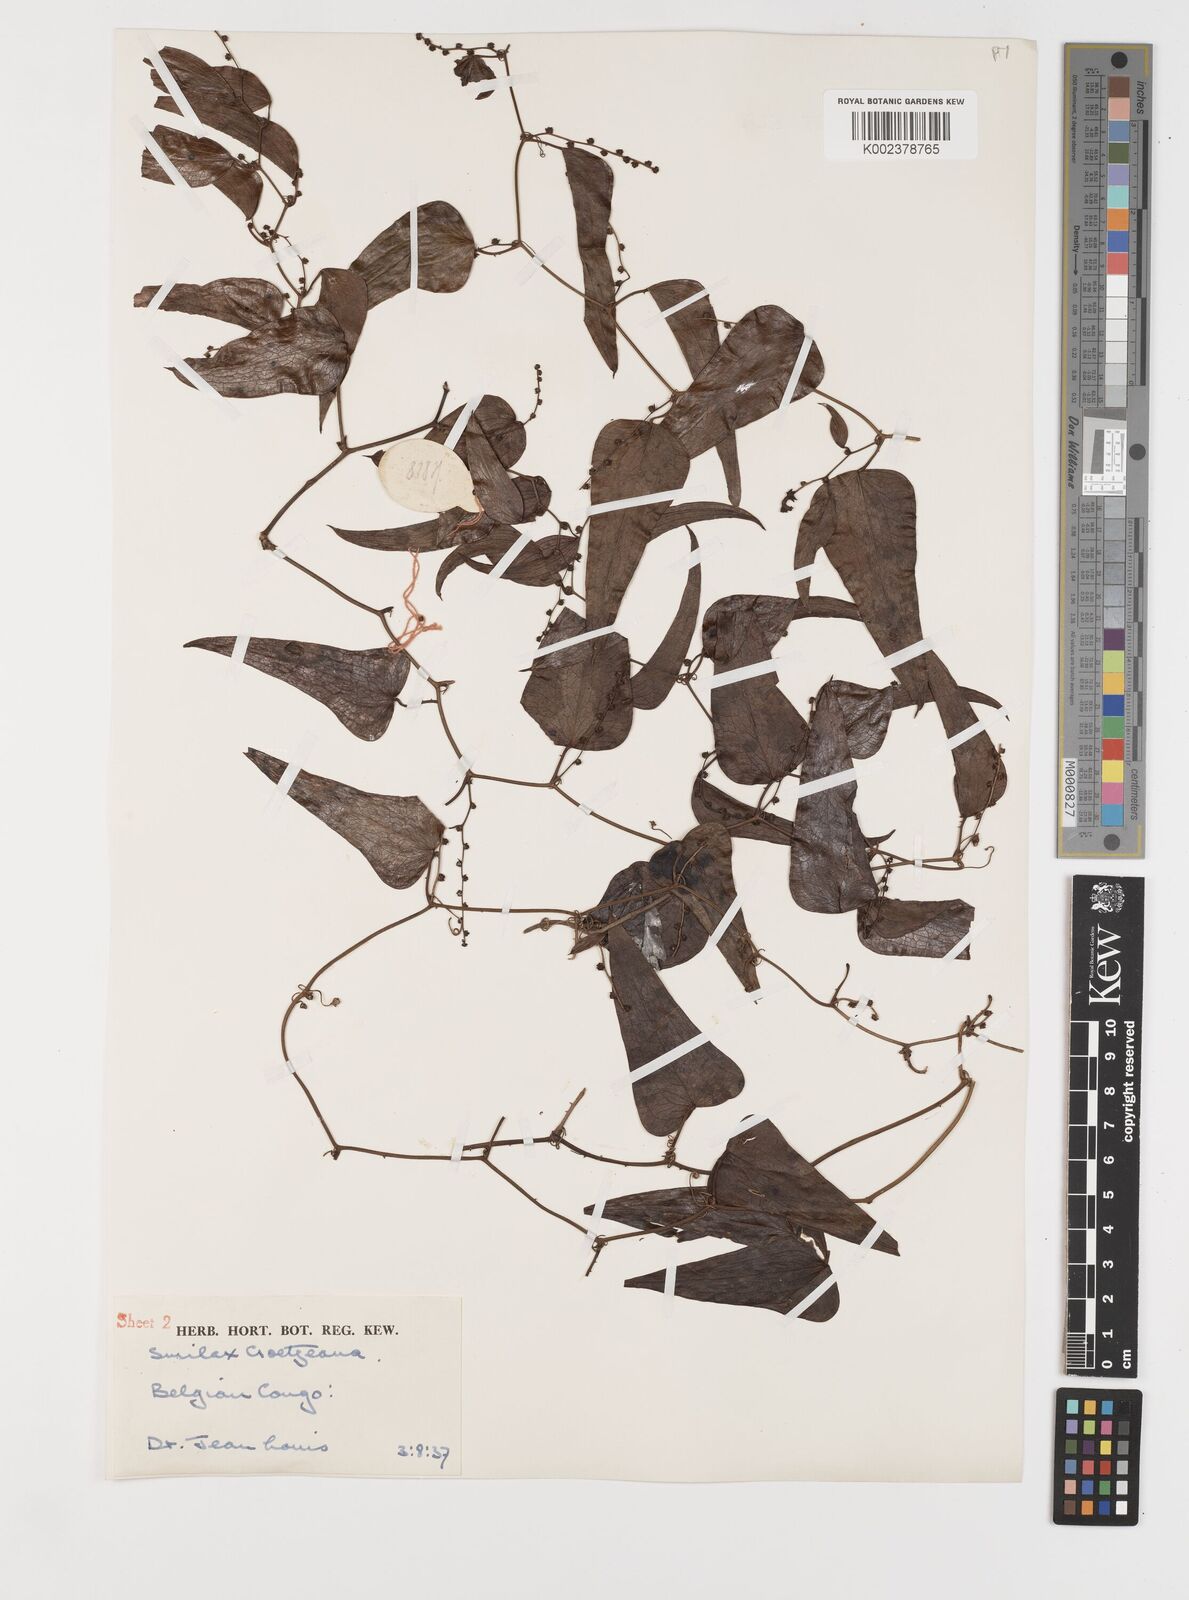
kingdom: Plantae
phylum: Tracheophyta
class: Liliopsida
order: Liliales
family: Smilacaceae
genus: Smilax
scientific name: Smilax aspera
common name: Common smilax
